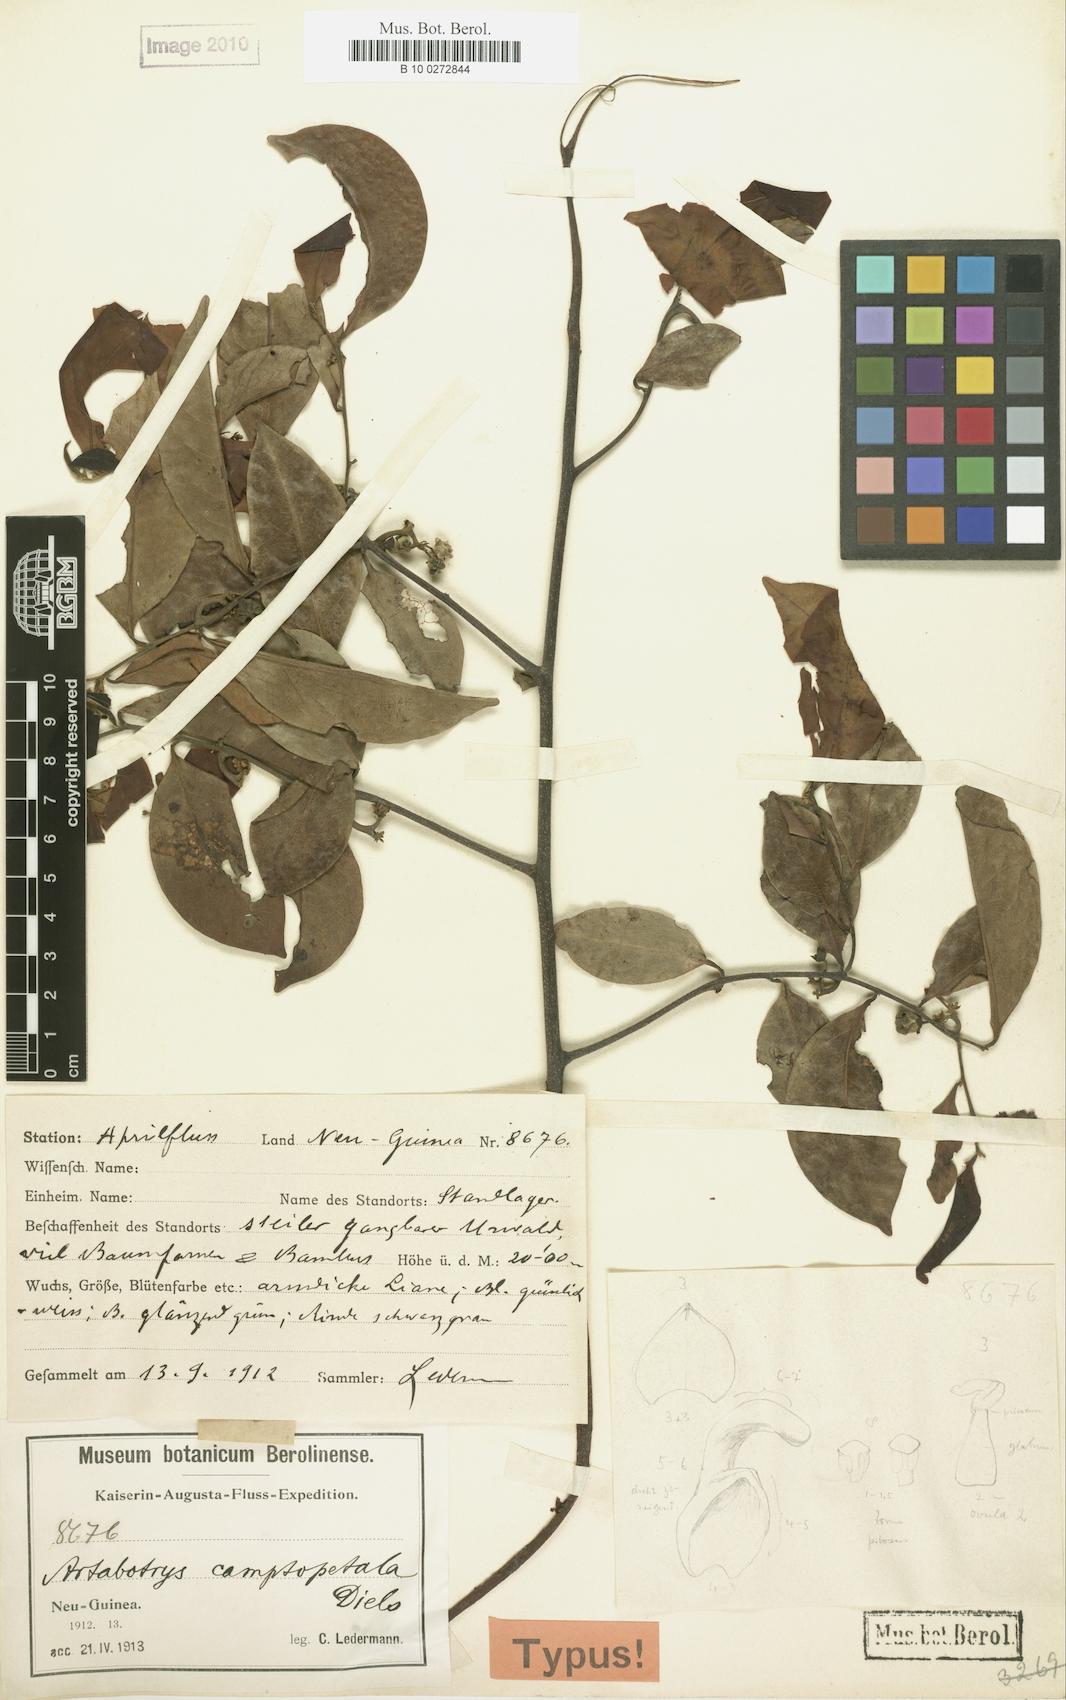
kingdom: Plantae
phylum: Tracheophyta
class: Magnoliopsida
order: Magnoliales
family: Annonaceae
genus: Artabotrys
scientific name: Artabotrys camptopetala
